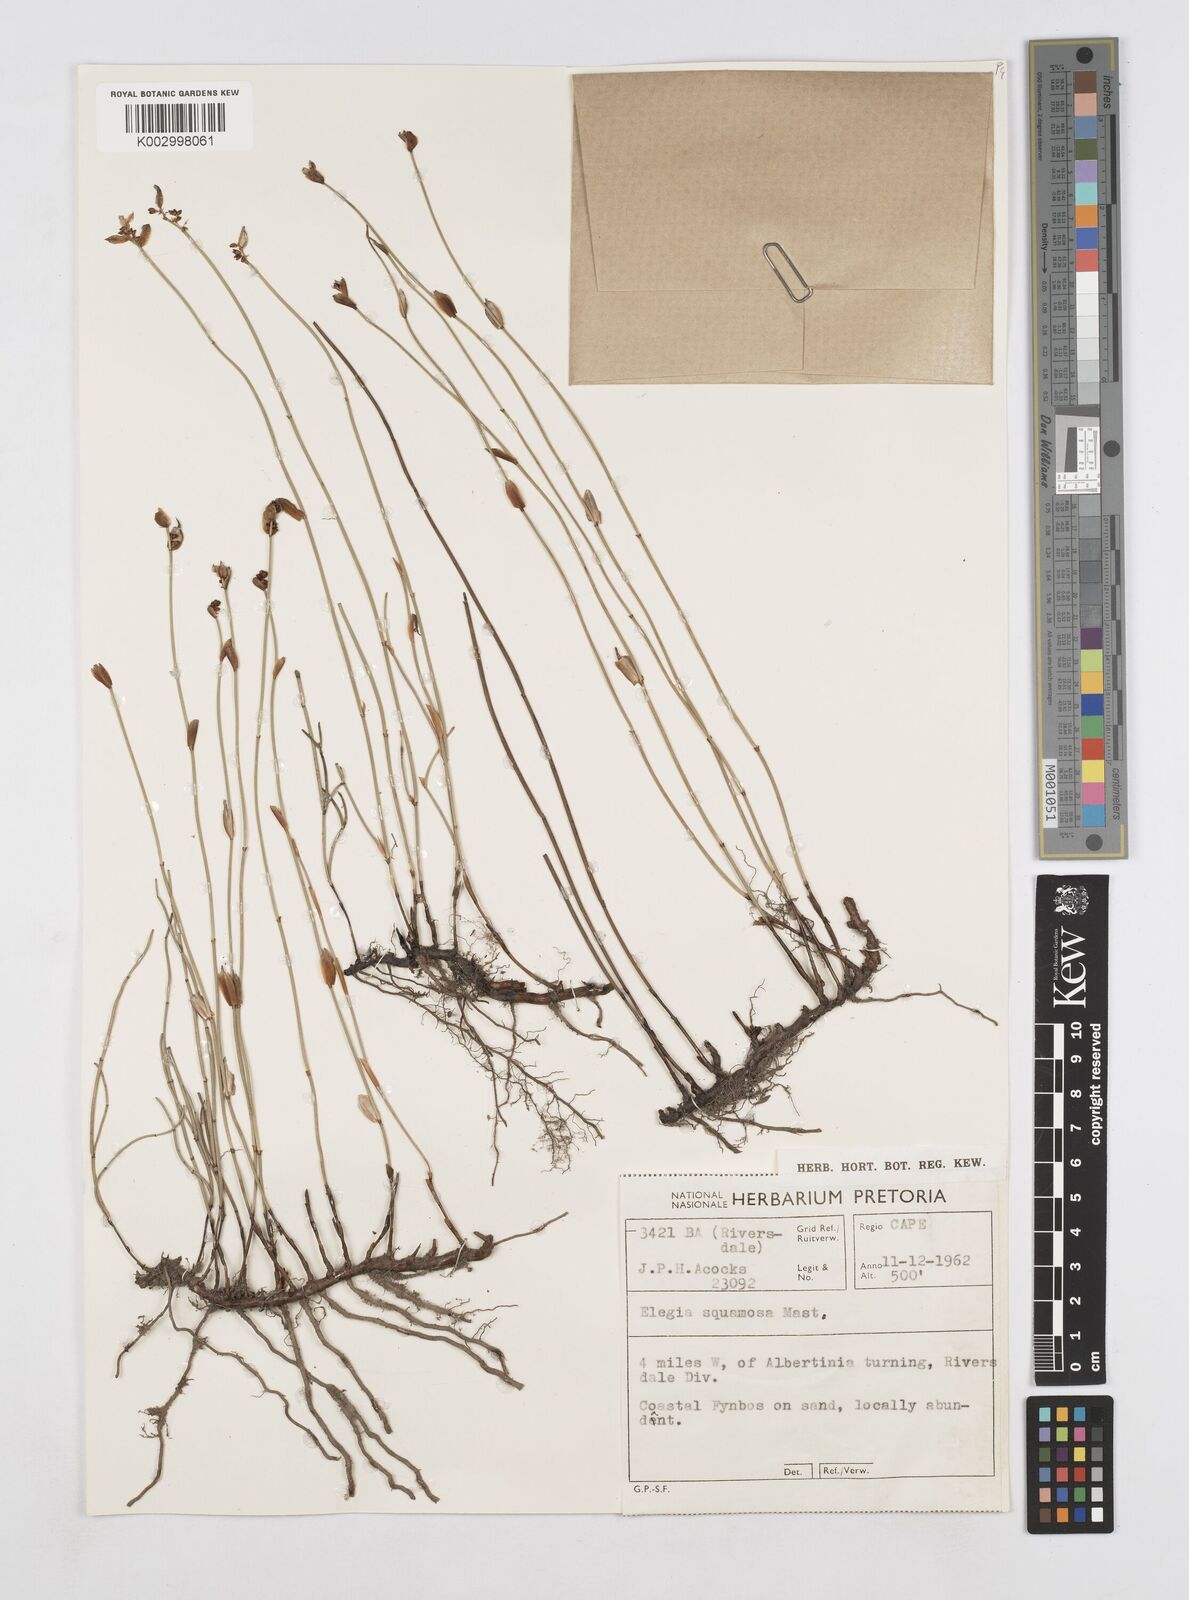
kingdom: Plantae
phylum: Tracheophyta
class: Liliopsida
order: Poales
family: Restionaceae
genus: Elegia
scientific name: Elegia vaginulata
